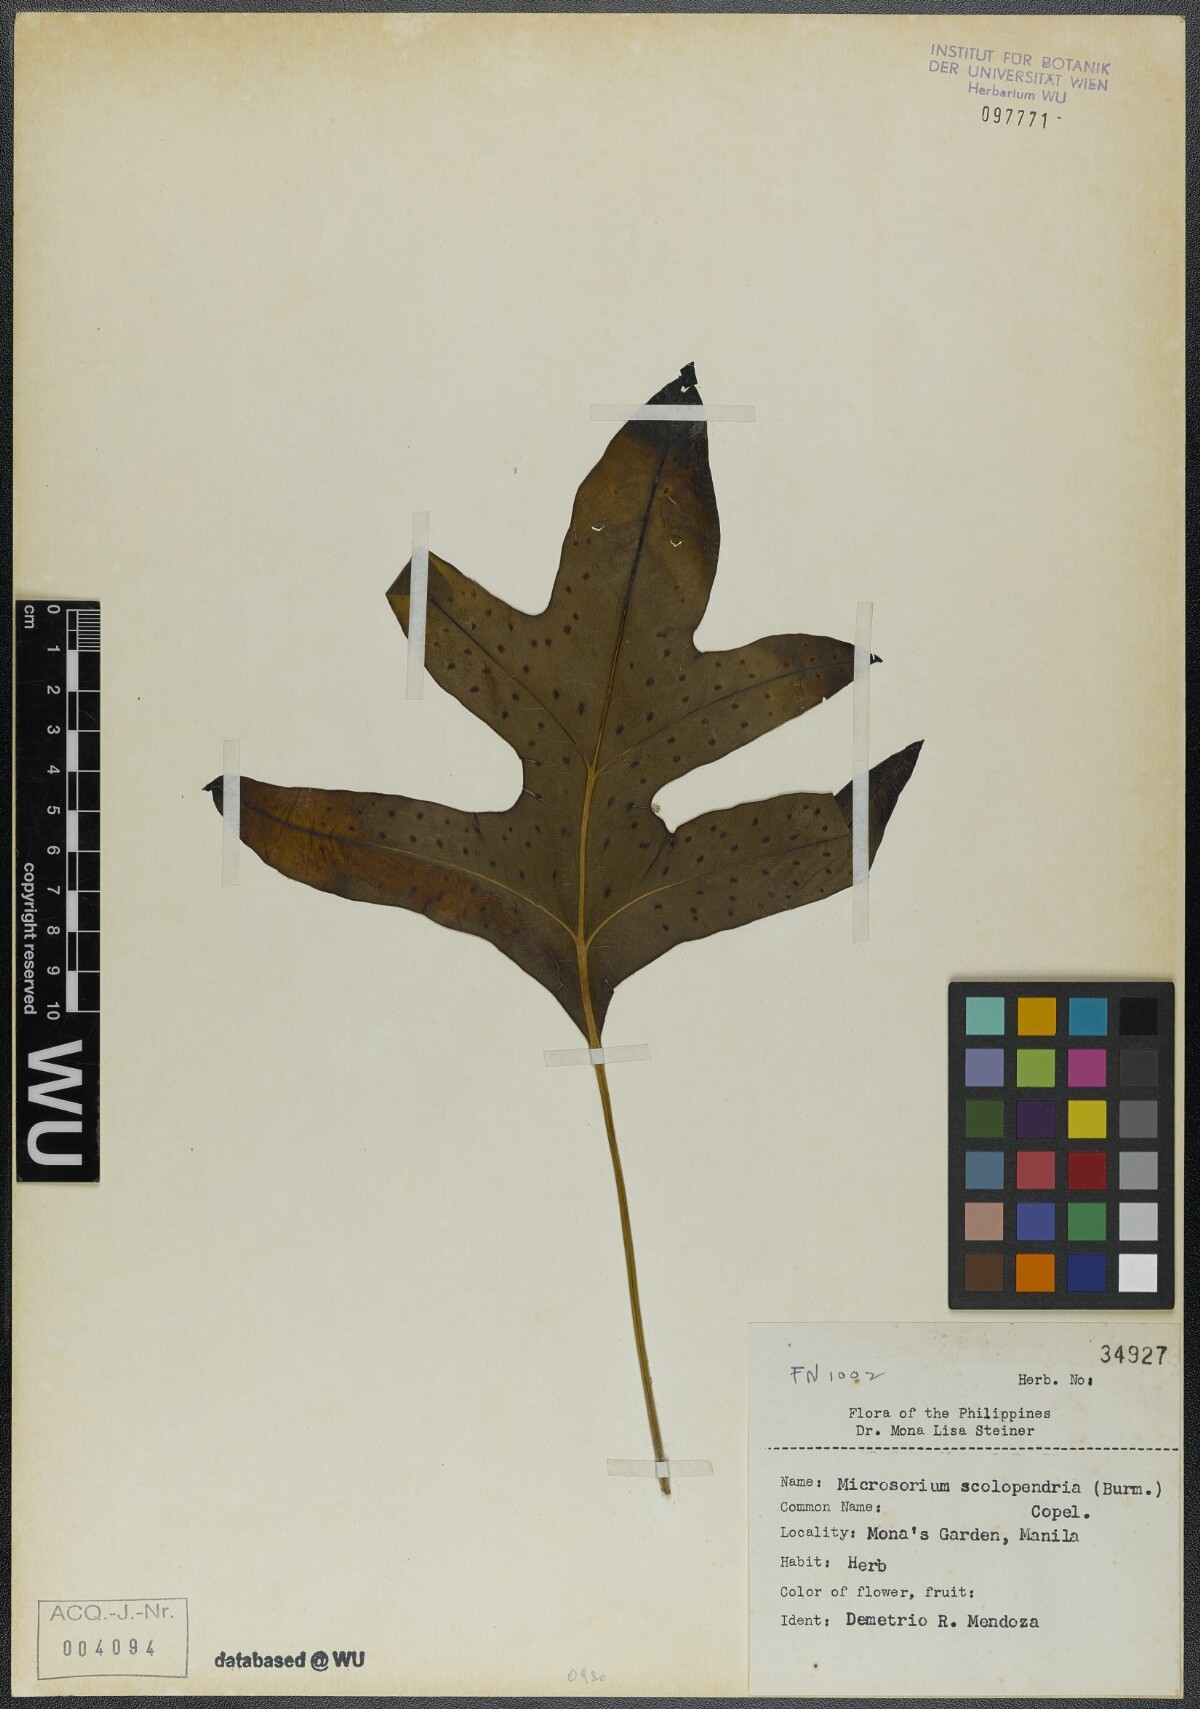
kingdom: Plantae
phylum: Tracheophyta
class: Polypodiopsida
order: Polypodiales
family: Polypodiaceae
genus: Microsorum
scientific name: Microsorum scolopendria
